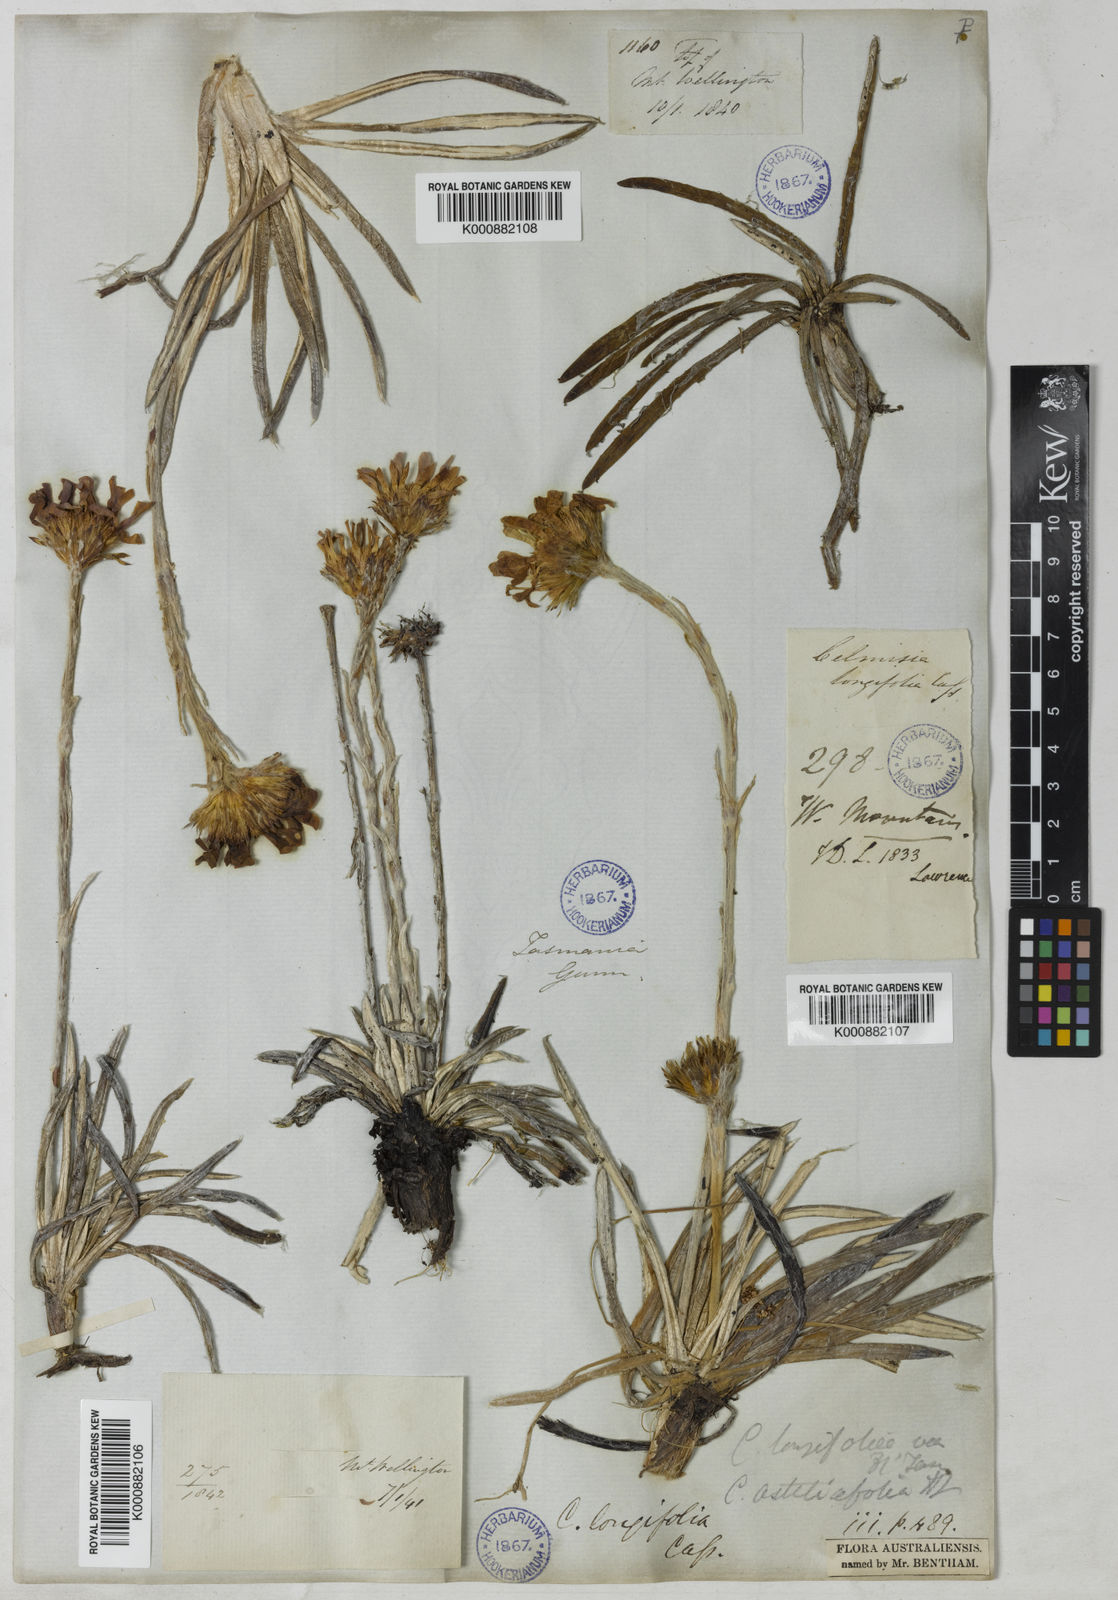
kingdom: Plantae
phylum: Tracheophyta
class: Magnoliopsida
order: Asterales
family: Asteraceae
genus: Celmisia
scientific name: Celmisia longifolia
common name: Silver snow daisy
